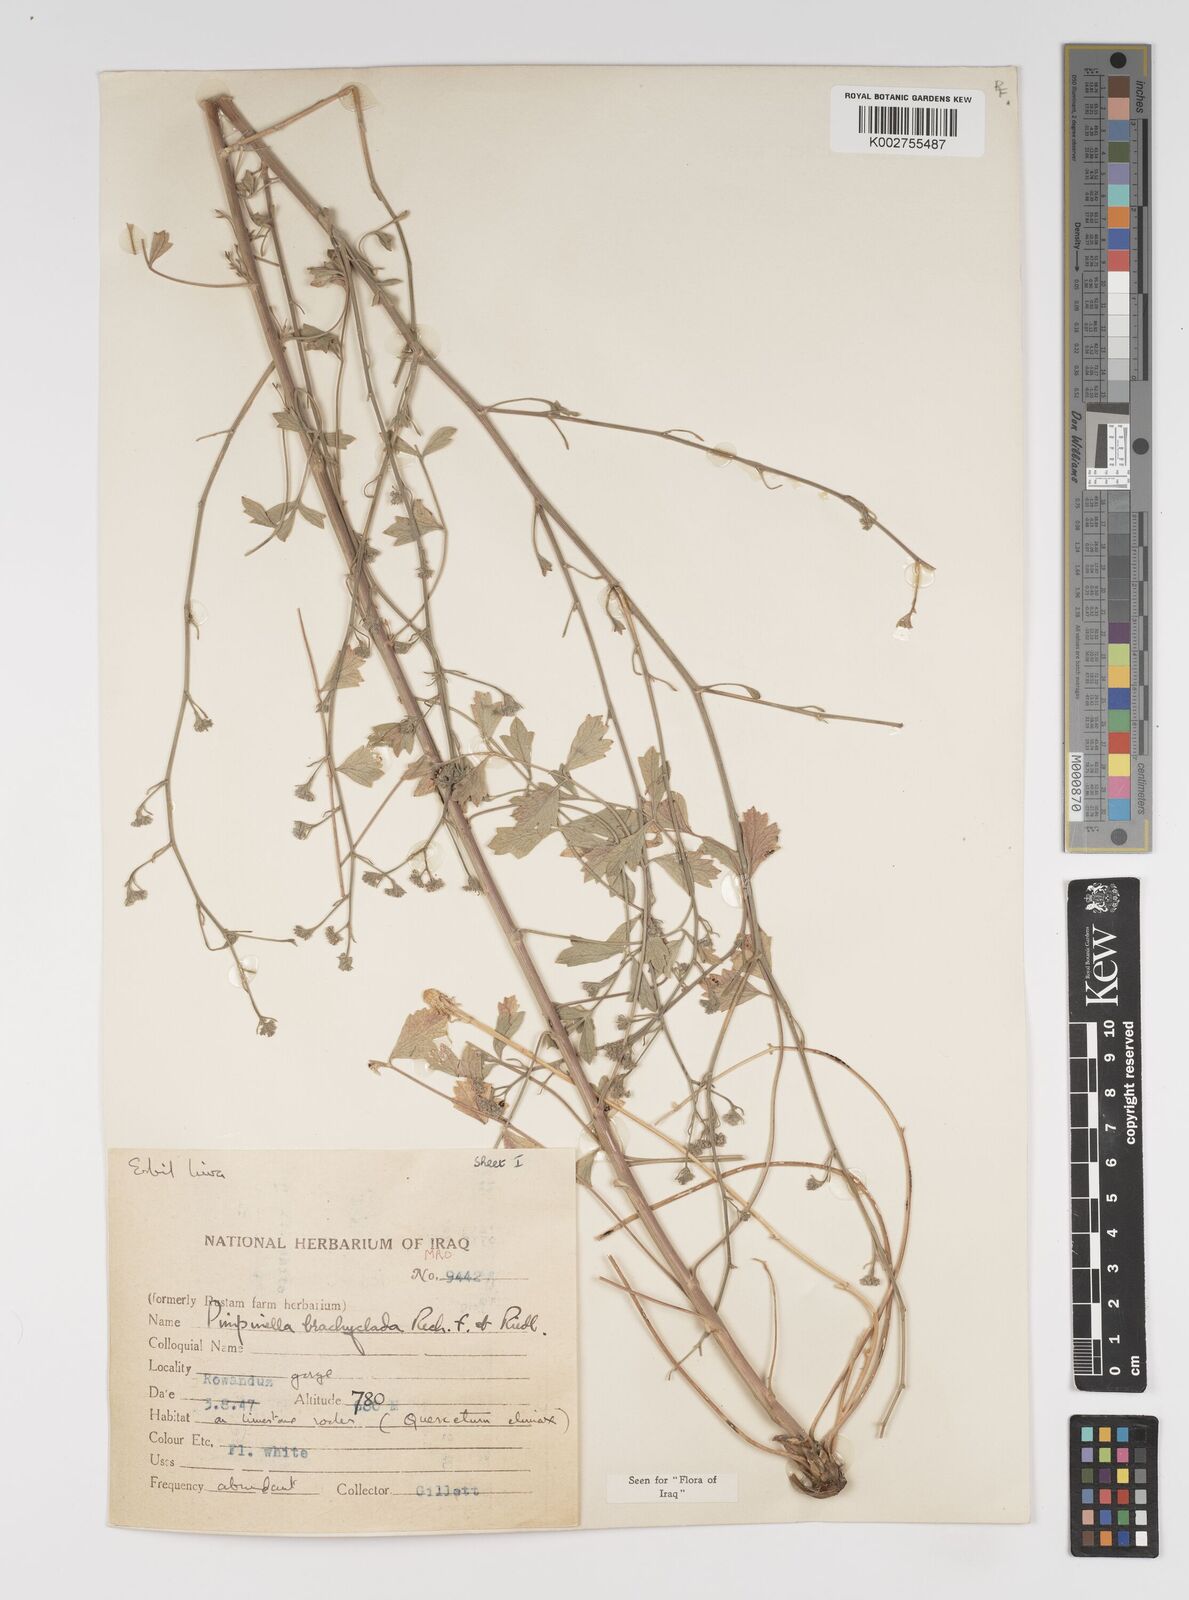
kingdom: Plantae
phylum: Tracheophyta
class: Magnoliopsida
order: Apiales
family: Apiaceae
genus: Pimpinella
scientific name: Pimpinella brachyclada
